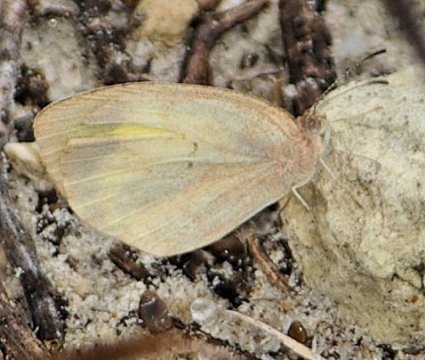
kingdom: Animalia
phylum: Arthropoda
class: Insecta
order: Lepidoptera
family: Pieridae
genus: Eurema
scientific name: Eurema daira
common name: Barred Yellow
